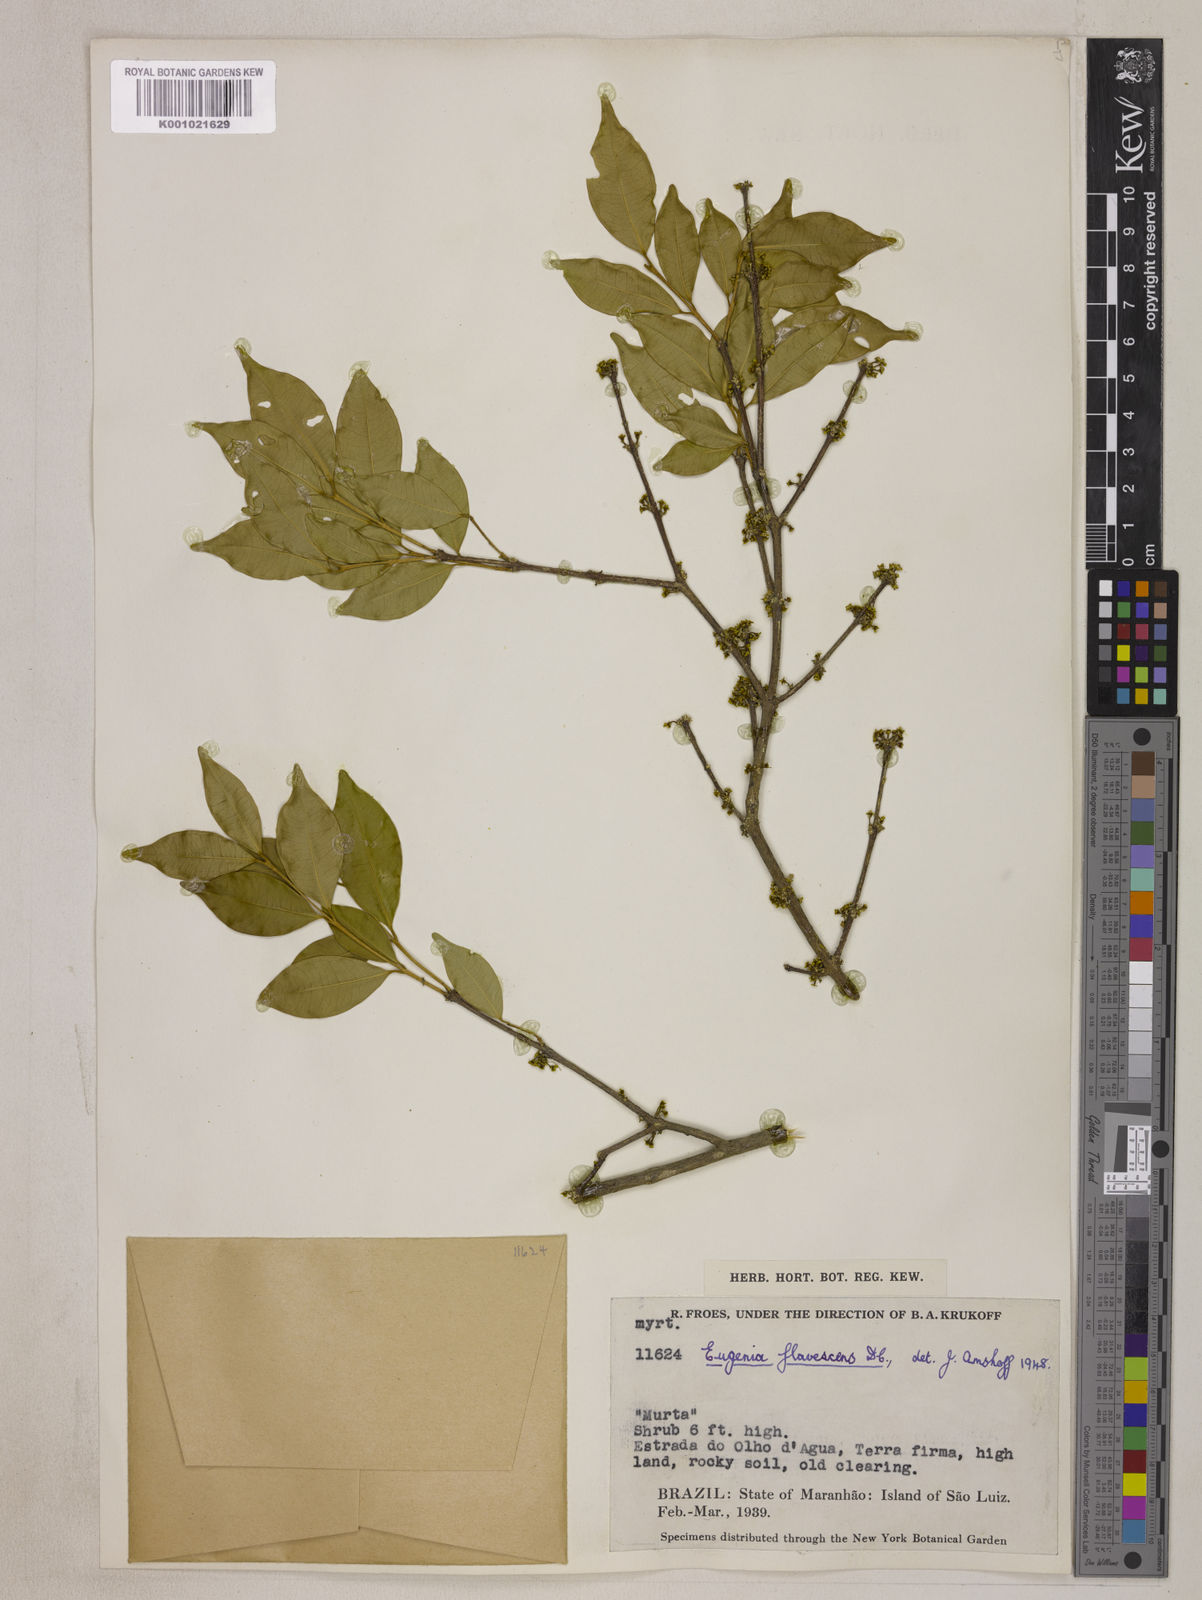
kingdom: Plantae
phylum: Tracheophyta
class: Magnoliopsida
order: Myrtales
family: Myrtaceae
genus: Eugenia
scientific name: Eugenia flavescens
